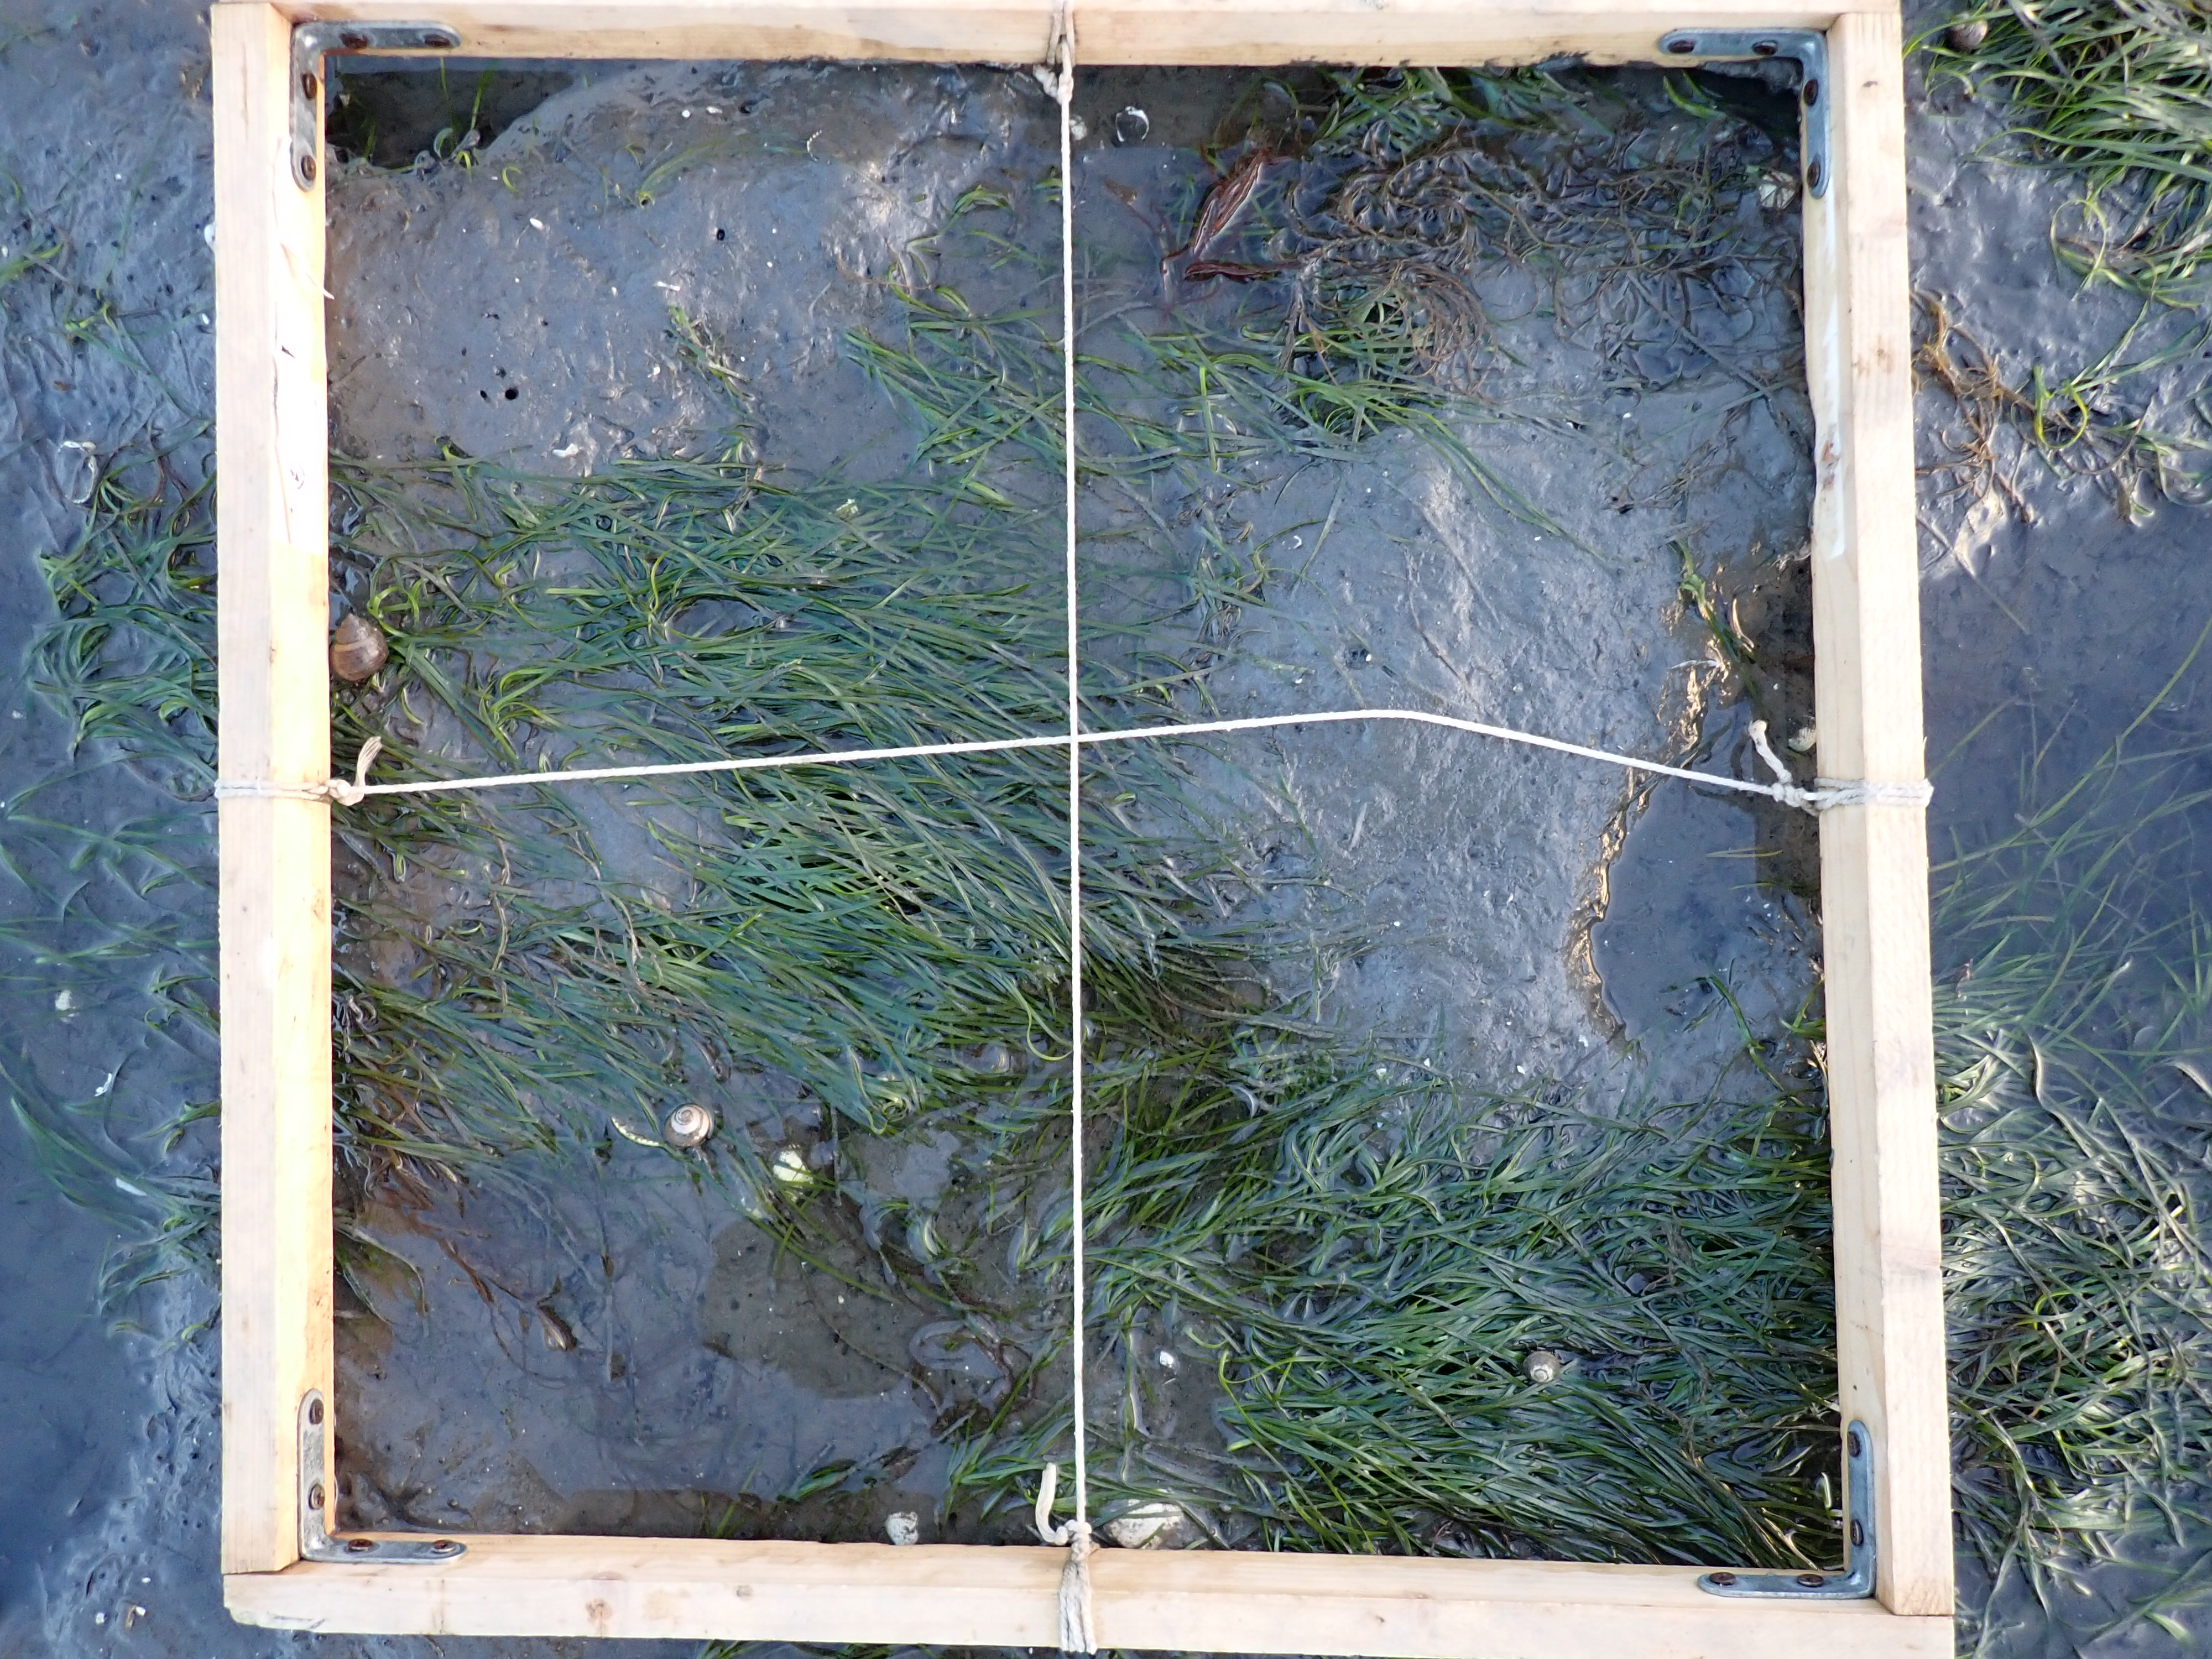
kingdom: Plantae
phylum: Tracheophyta
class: Liliopsida
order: Alismatales
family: Zosteraceae
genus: Zostera
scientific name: Zostera noltii
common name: Dwarf eelgrass
